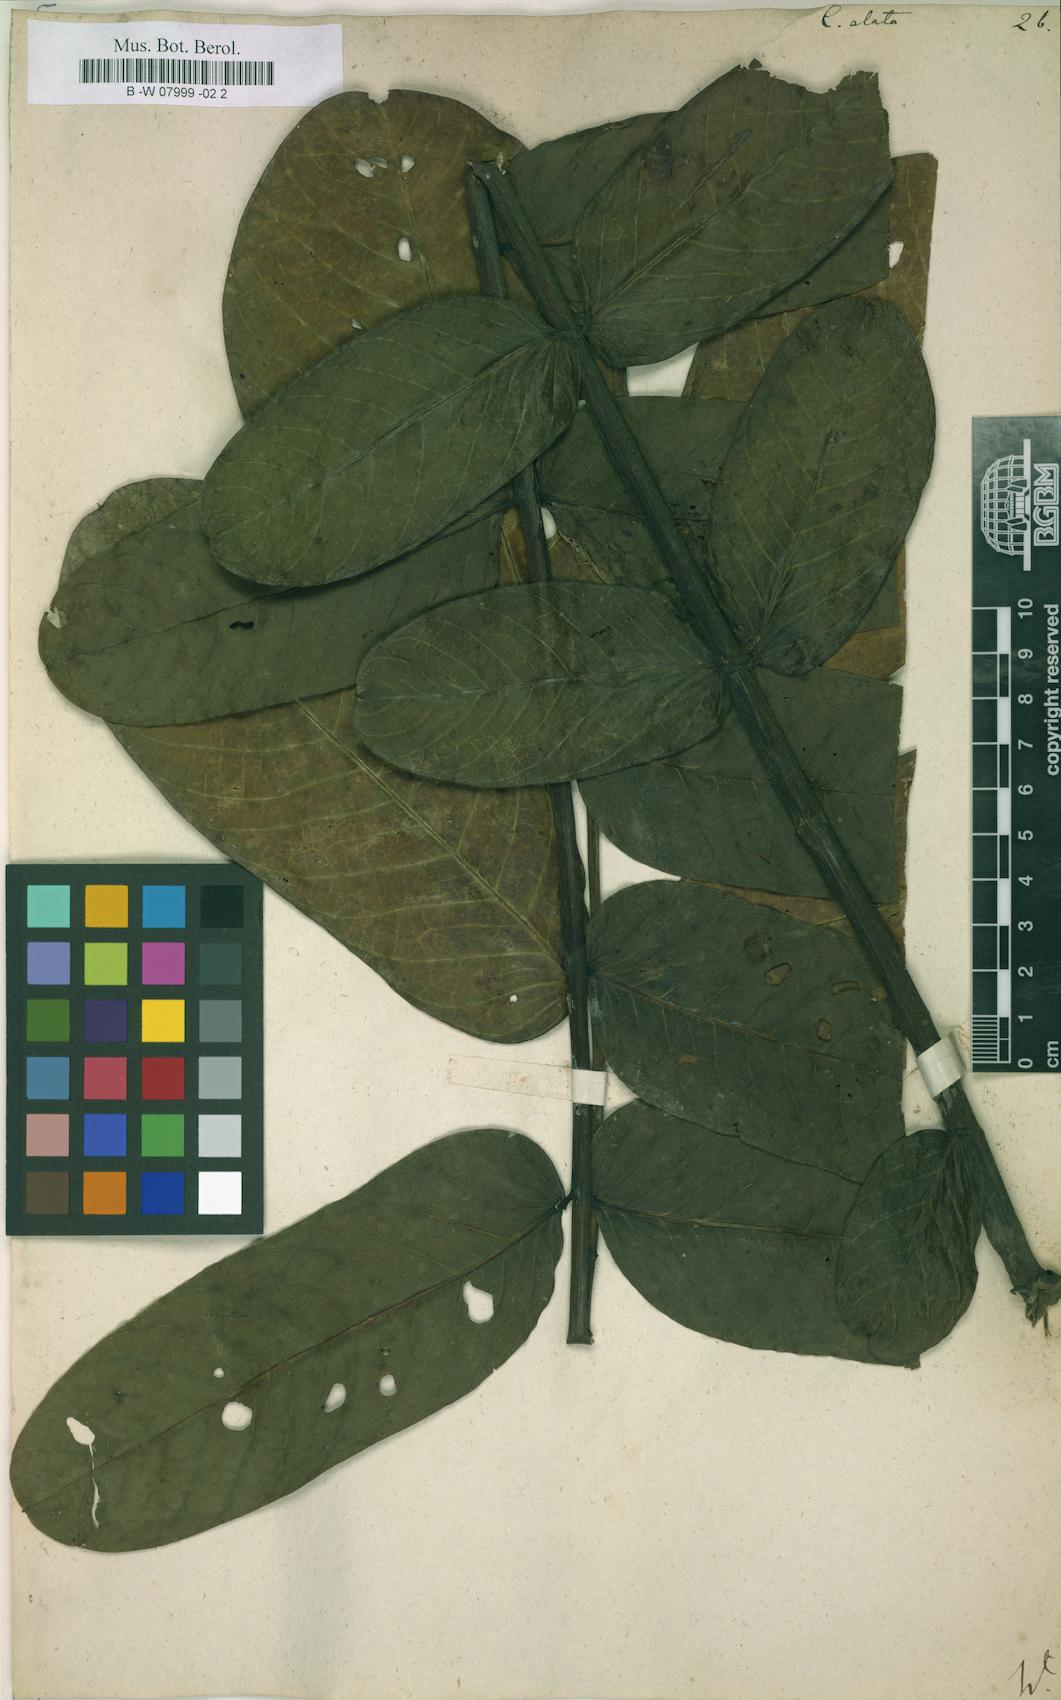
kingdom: Plantae
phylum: Tracheophyta
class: Magnoliopsida
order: Fabales
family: Fabaceae
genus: Senna
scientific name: Senna alata
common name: Emperor's candlesticks
